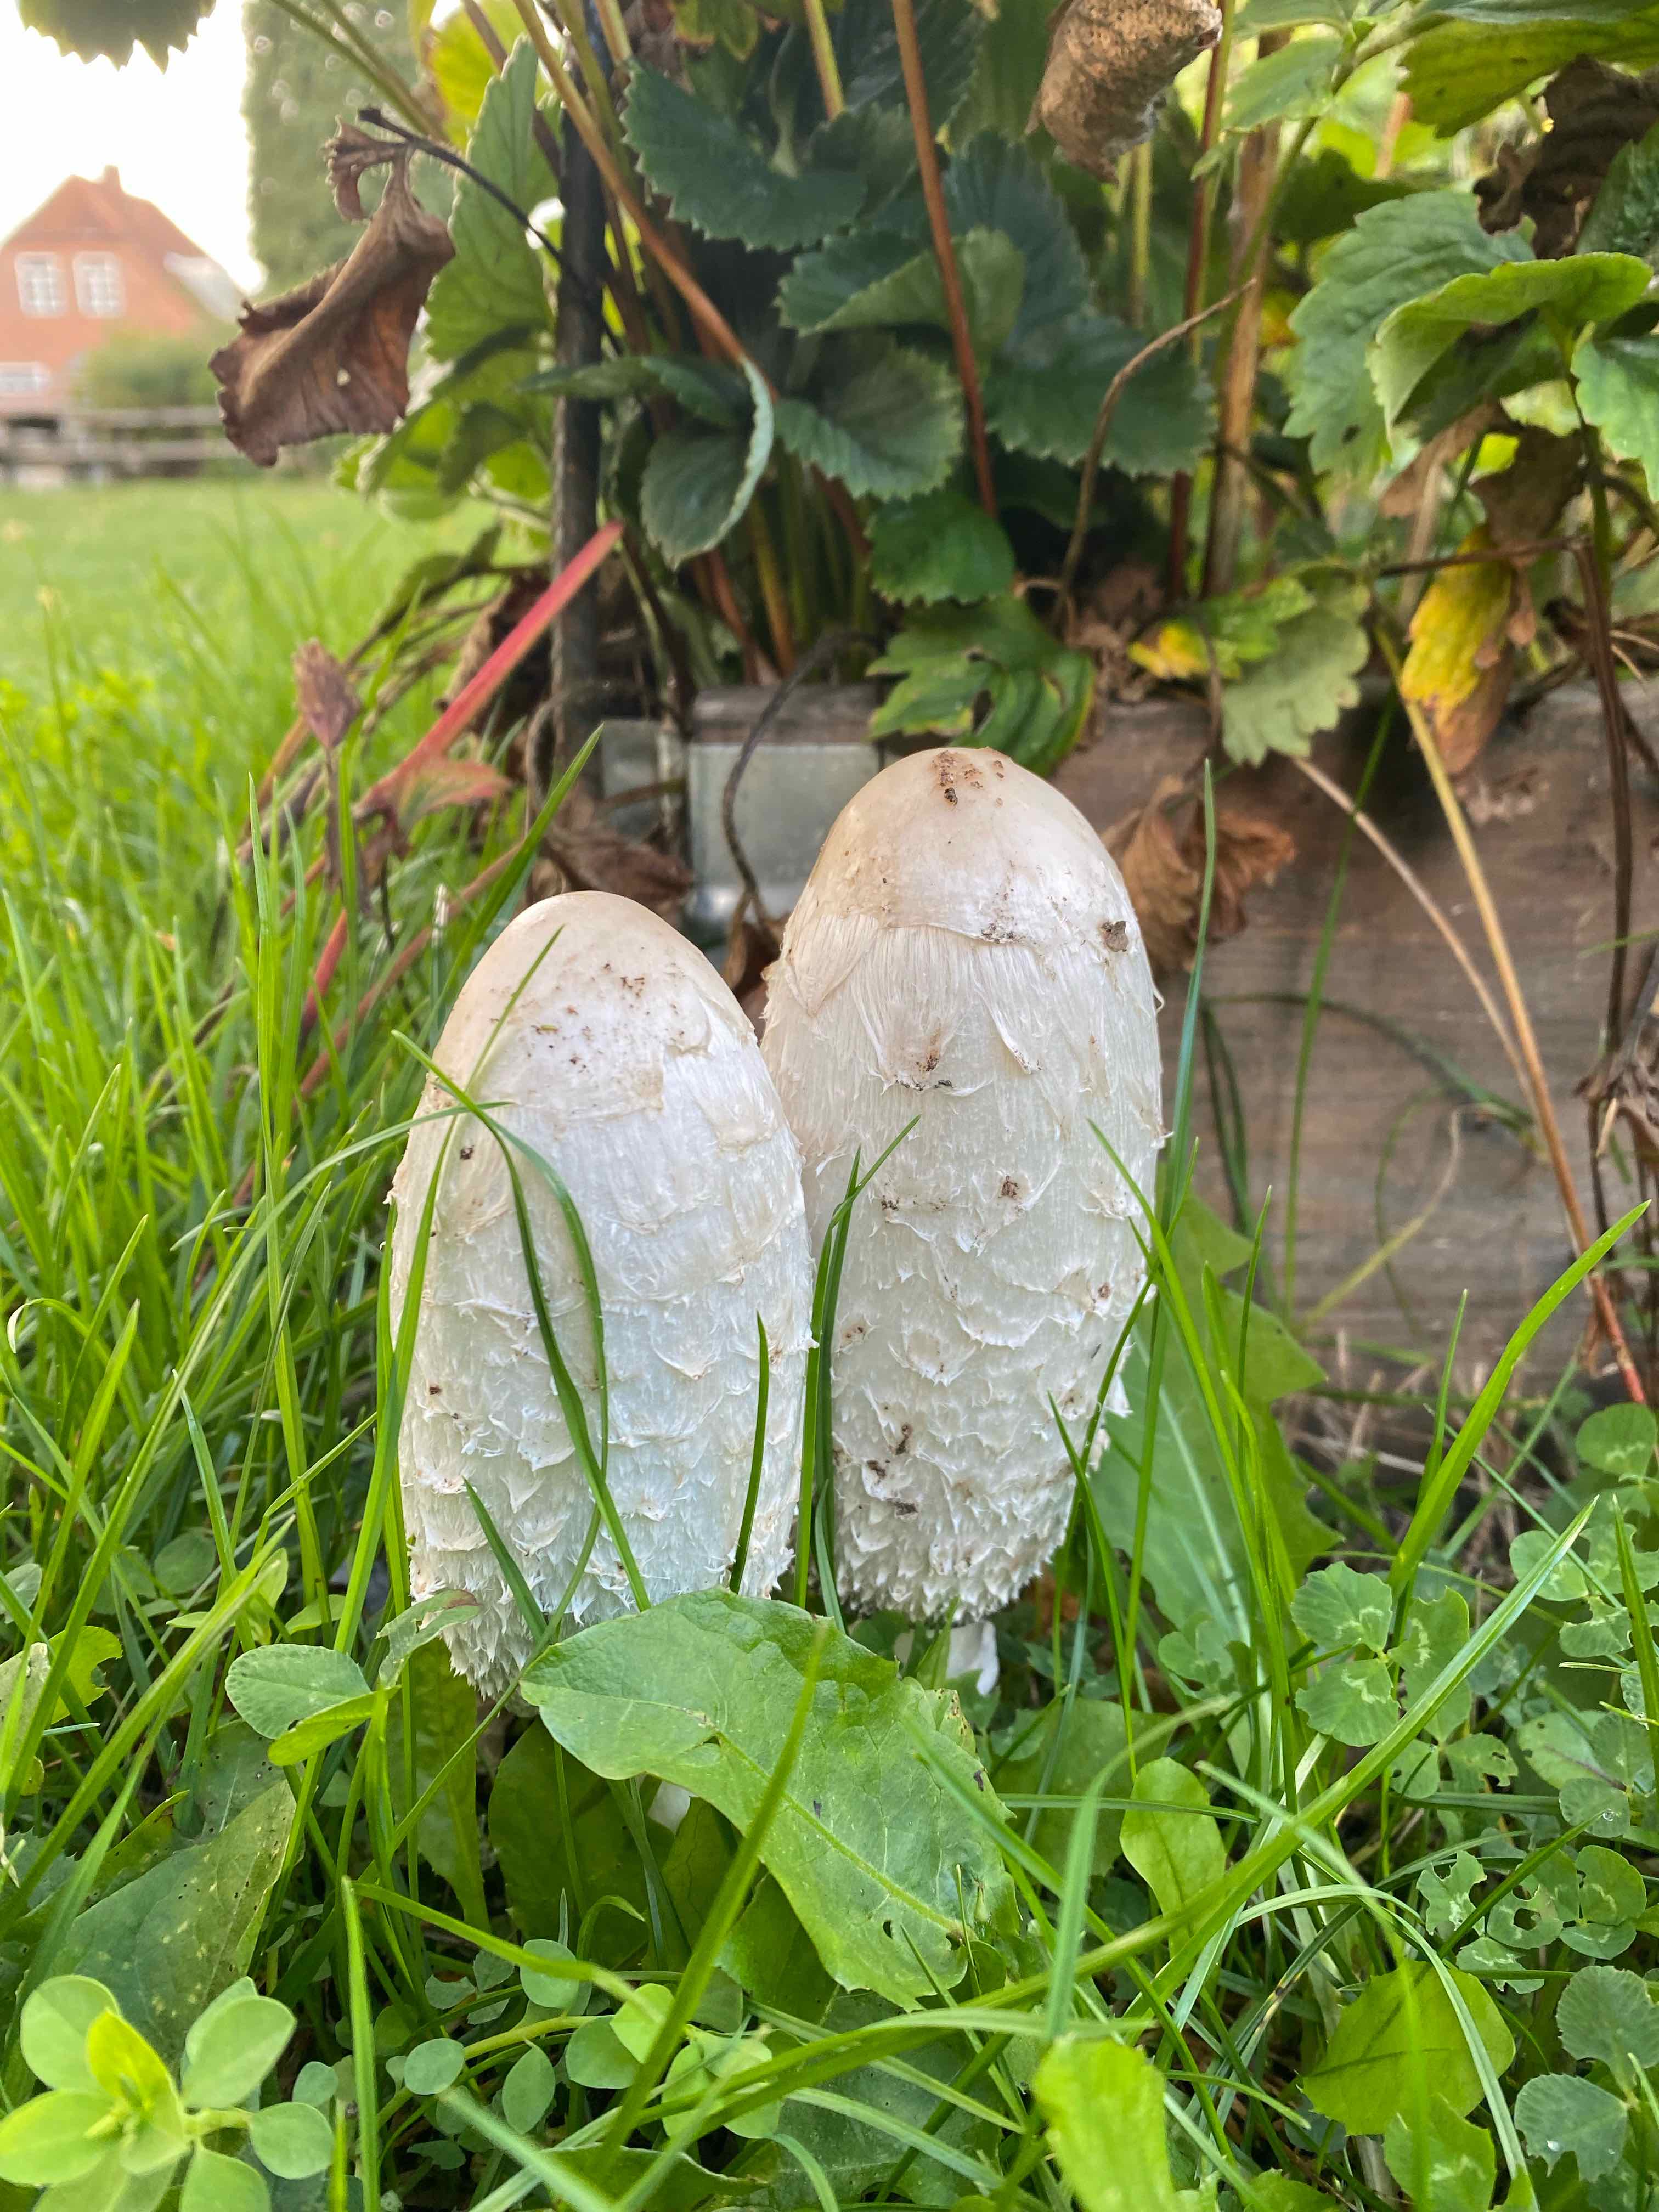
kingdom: Fungi
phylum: Basidiomycota
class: Agaricomycetes
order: Agaricales
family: Agaricaceae
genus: Coprinus
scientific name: Coprinus comatus
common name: stor parykhat
